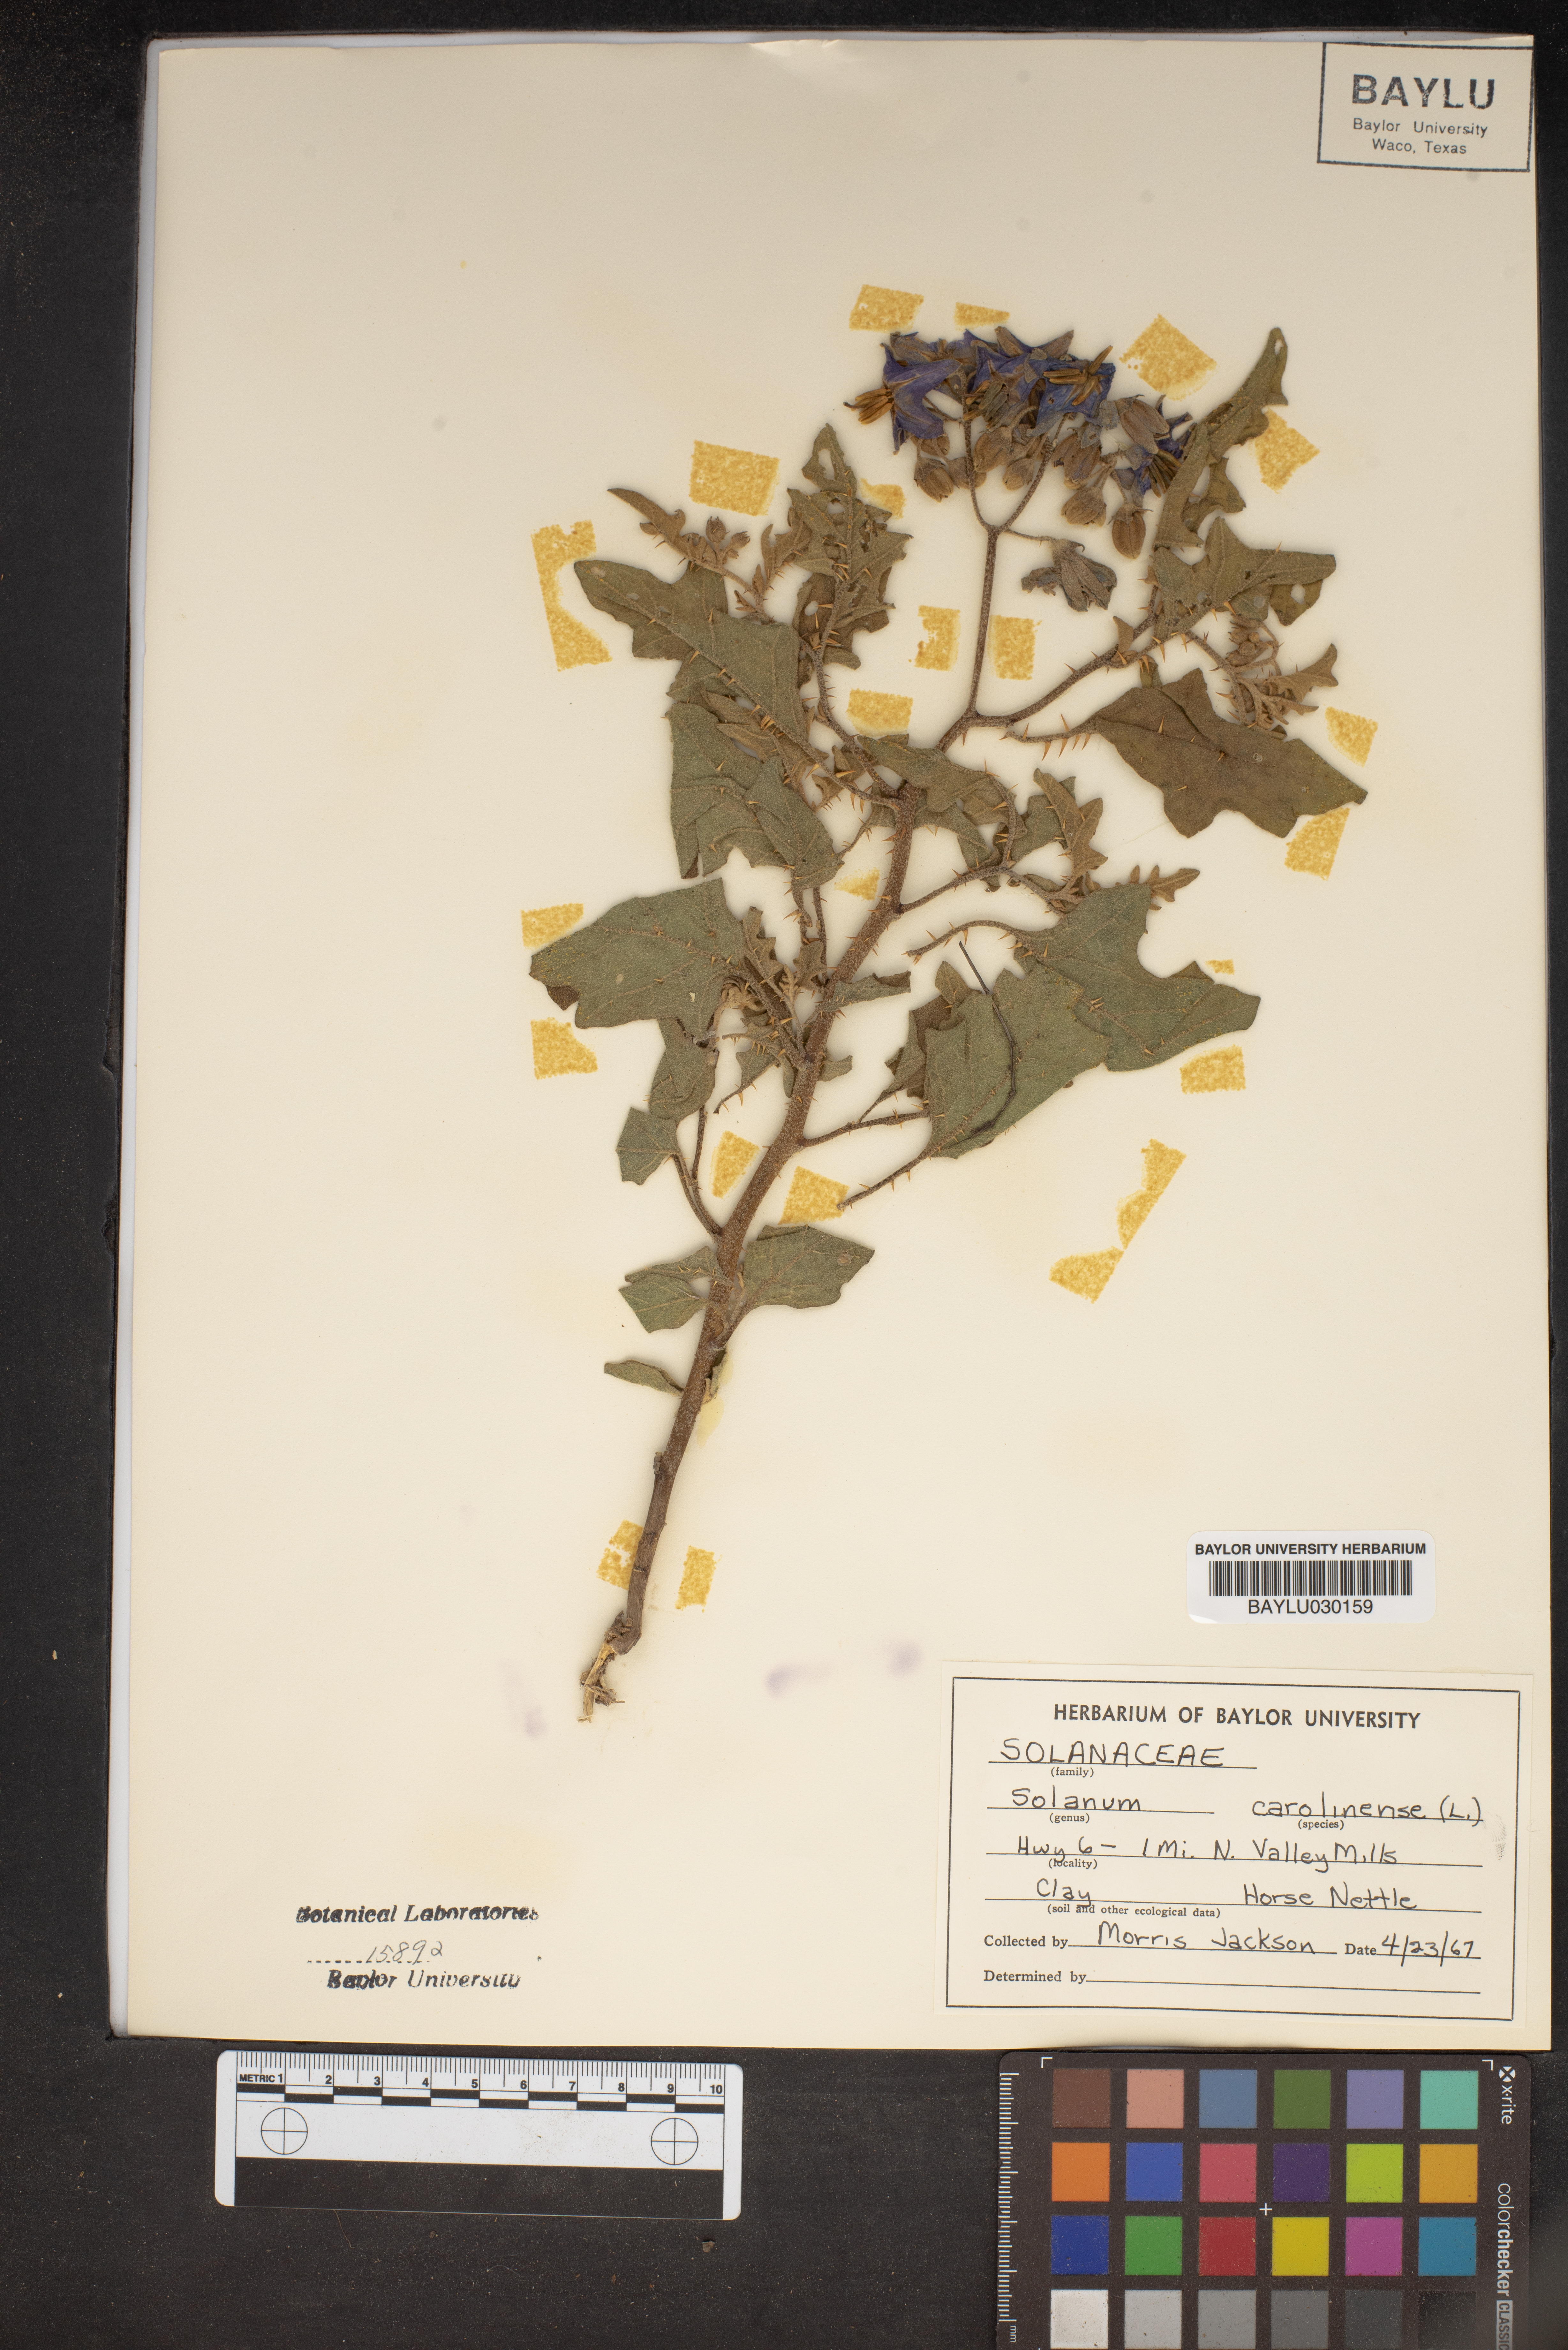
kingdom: Plantae
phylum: Tracheophyta
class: Magnoliopsida
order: Solanales
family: Solanaceae
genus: Solanum
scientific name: Solanum carolinense
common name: Horse-nettle
